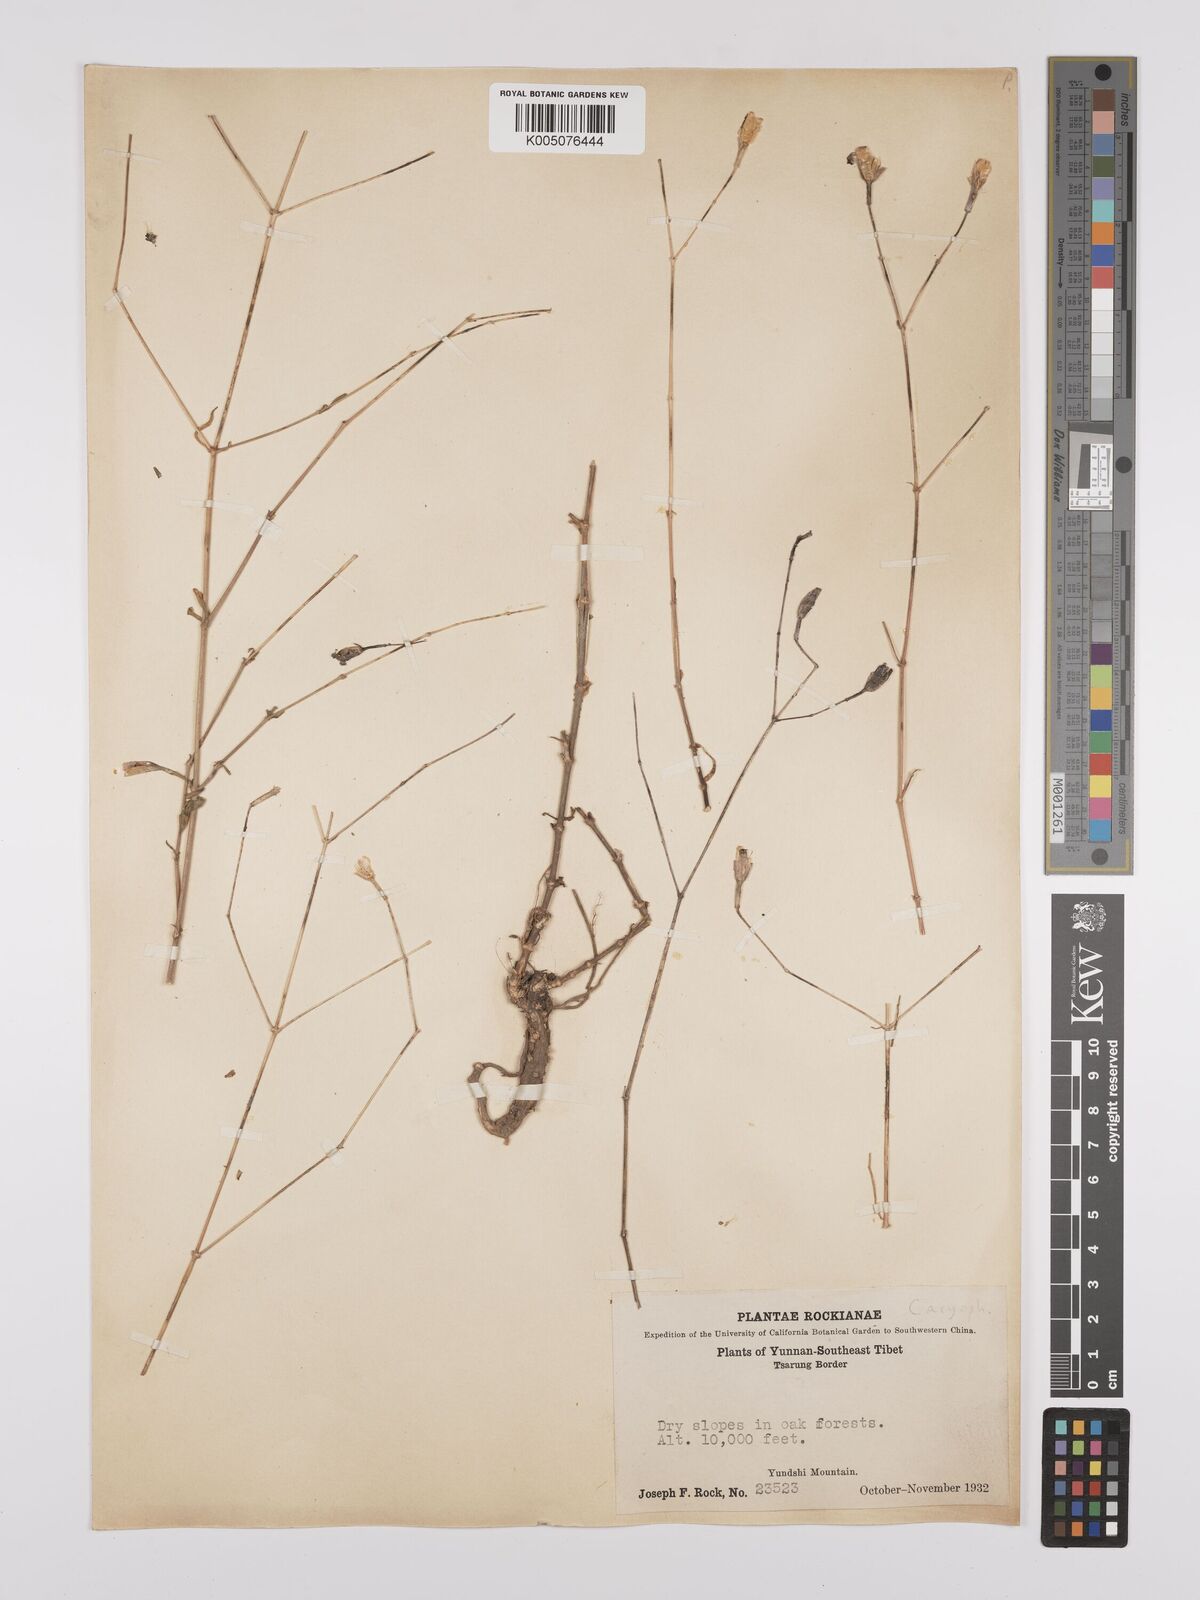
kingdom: Plantae
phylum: Tracheophyta
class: Magnoliopsida
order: Caryophyllales
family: Caryophyllaceae
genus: Silene
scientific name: Silene
